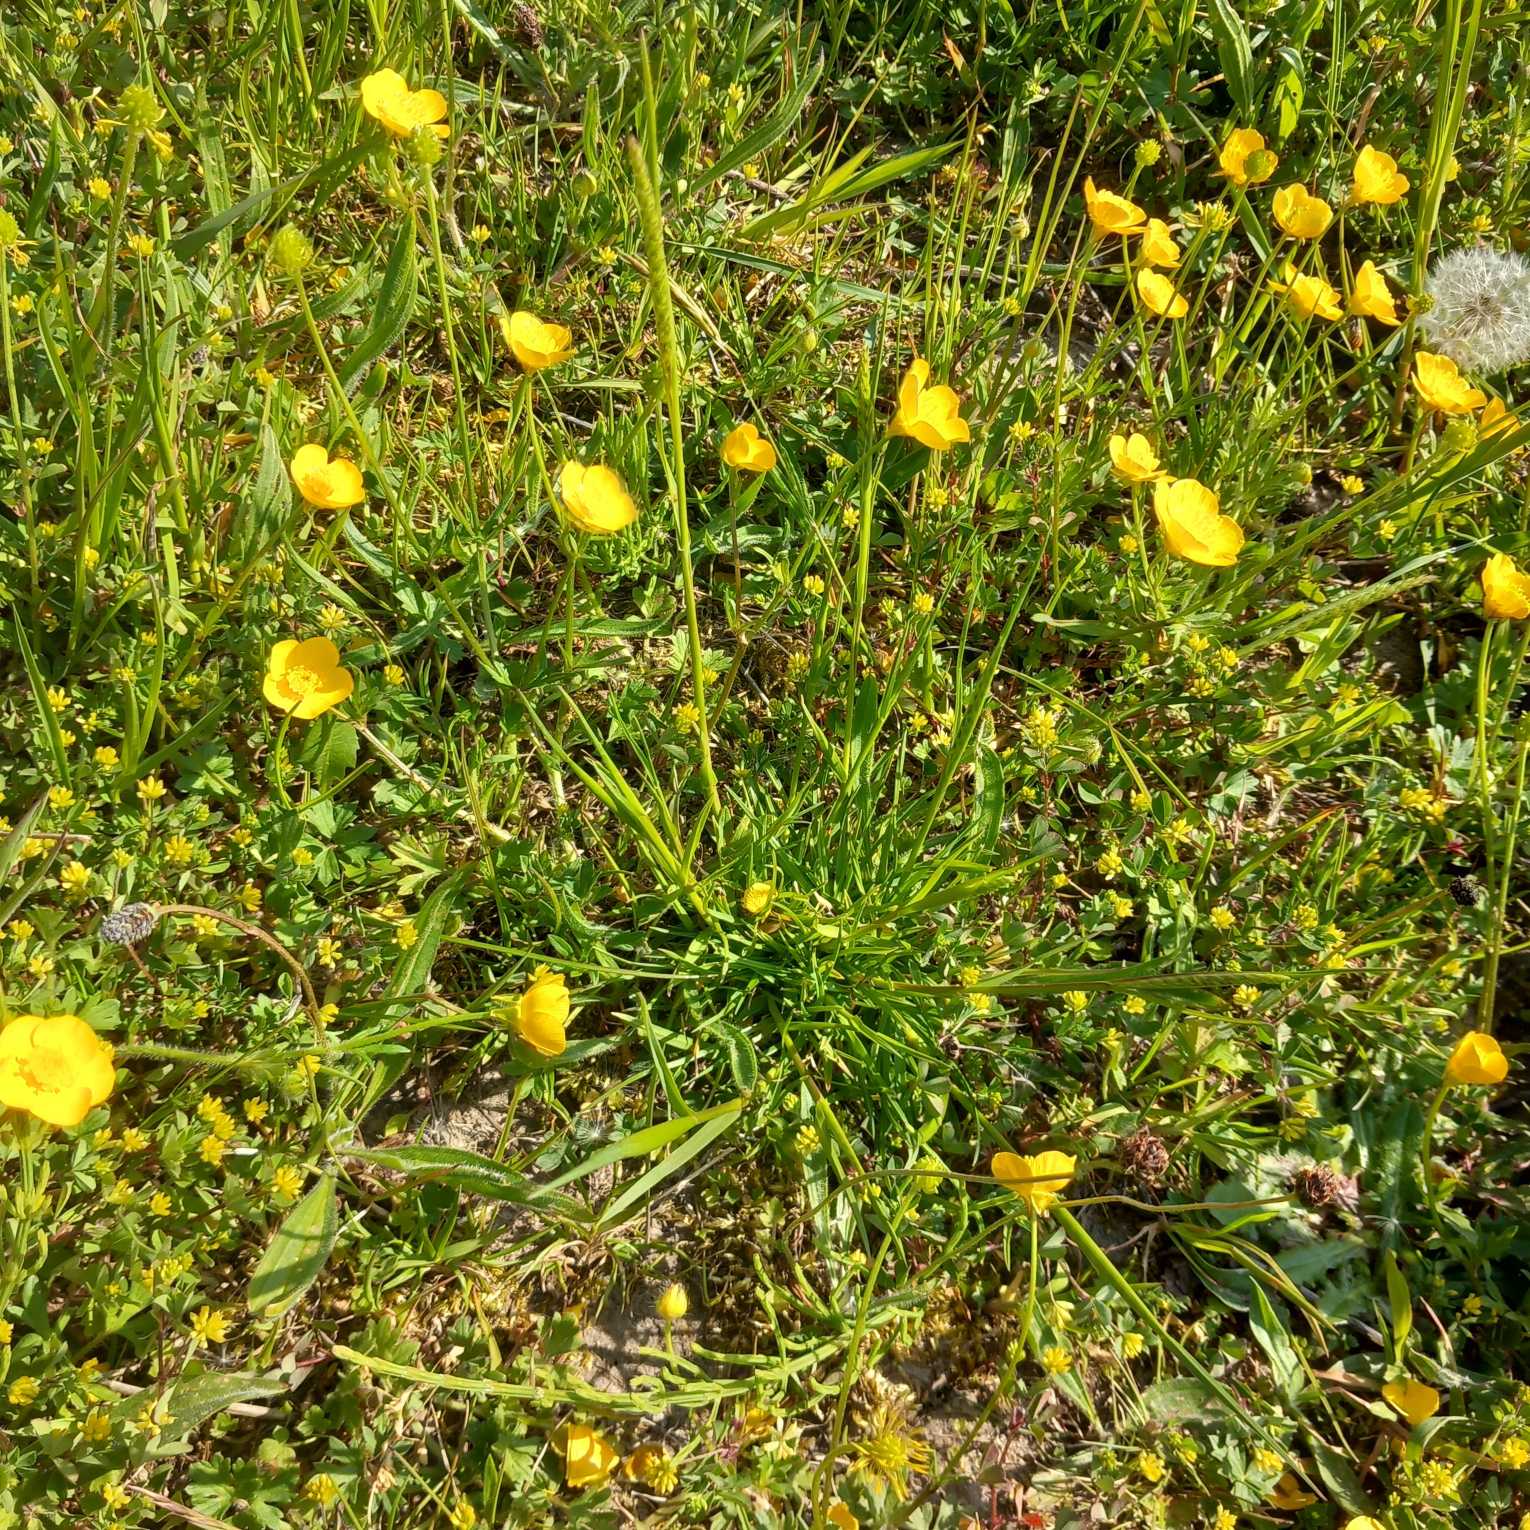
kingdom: Plantae
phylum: Tracheophyta
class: Liliopsida
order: Poales
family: Poaceae
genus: Cynosurus
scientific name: Cynosurus cristatus
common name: Kamgræs
